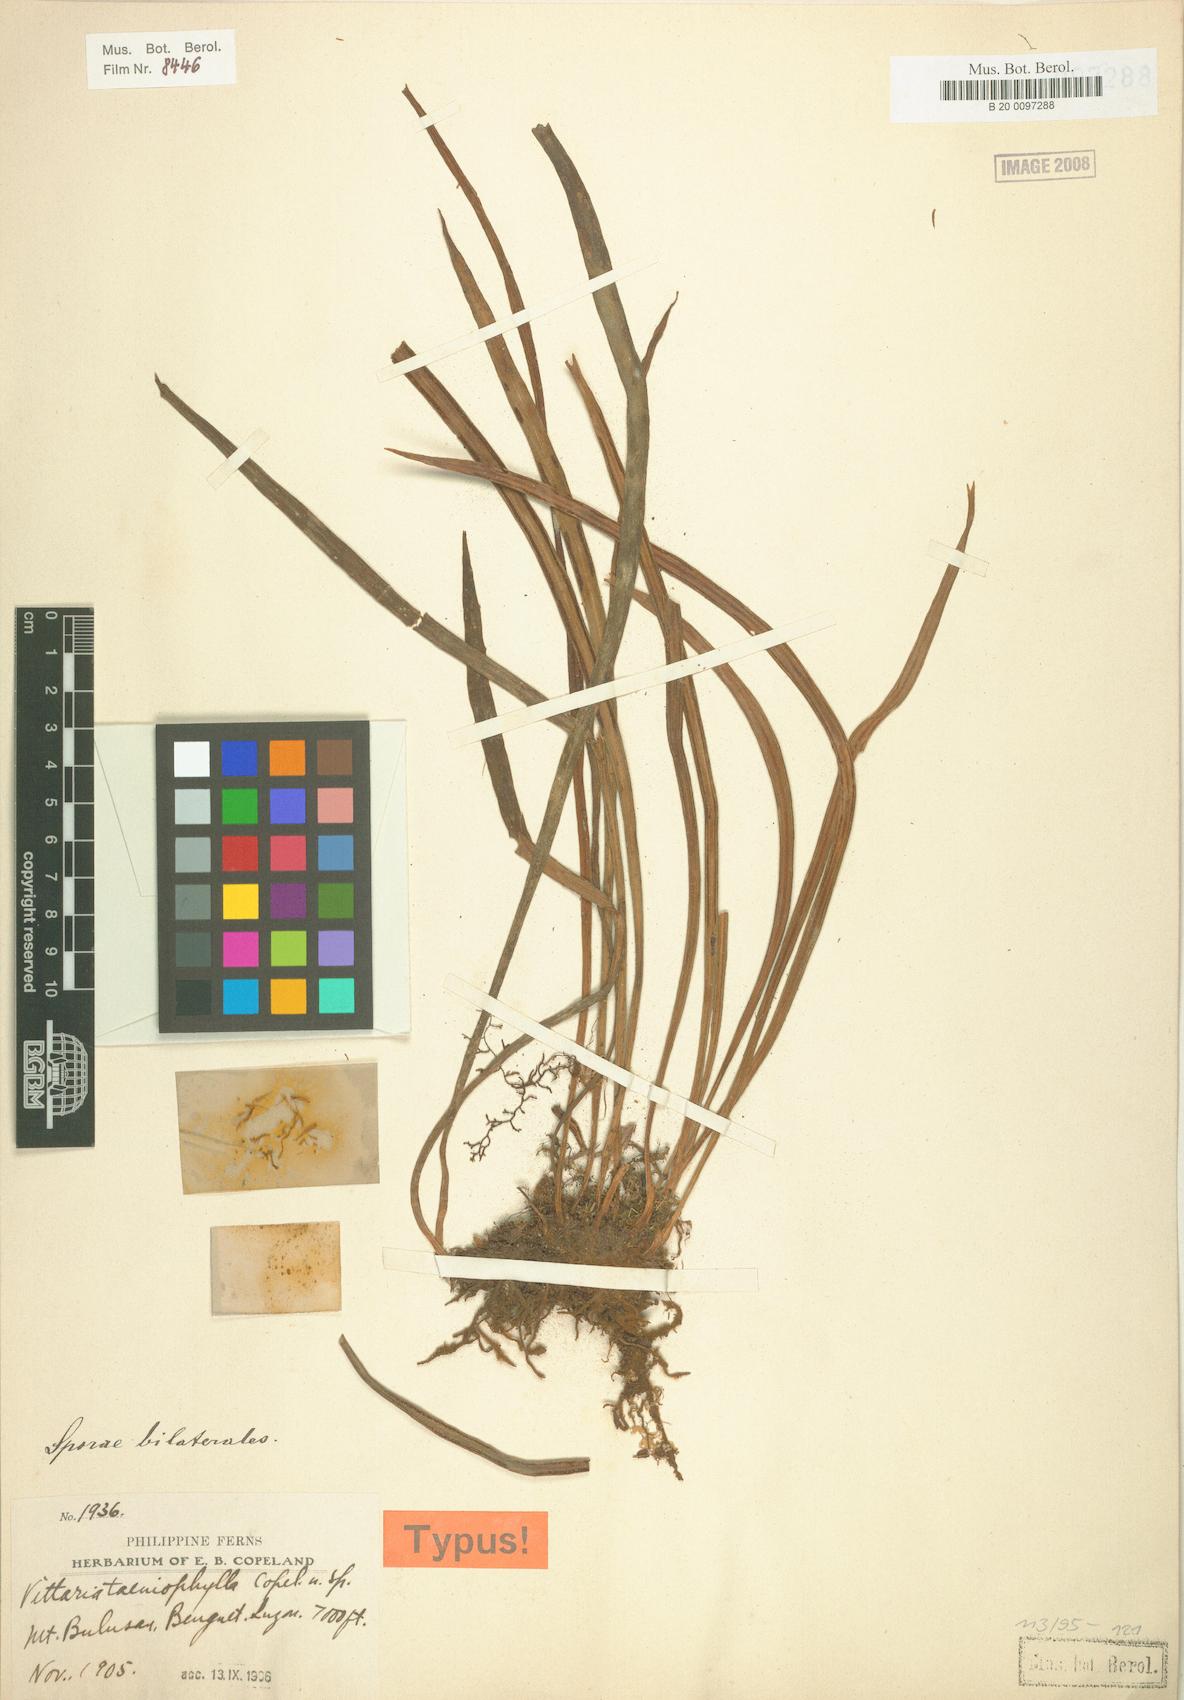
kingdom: Plantae
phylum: Tracheophyta
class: Polypodiopsida
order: Polypodiales
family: Pteridaceae
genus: Haplopteris
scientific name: Haplopteris taeniophylla
